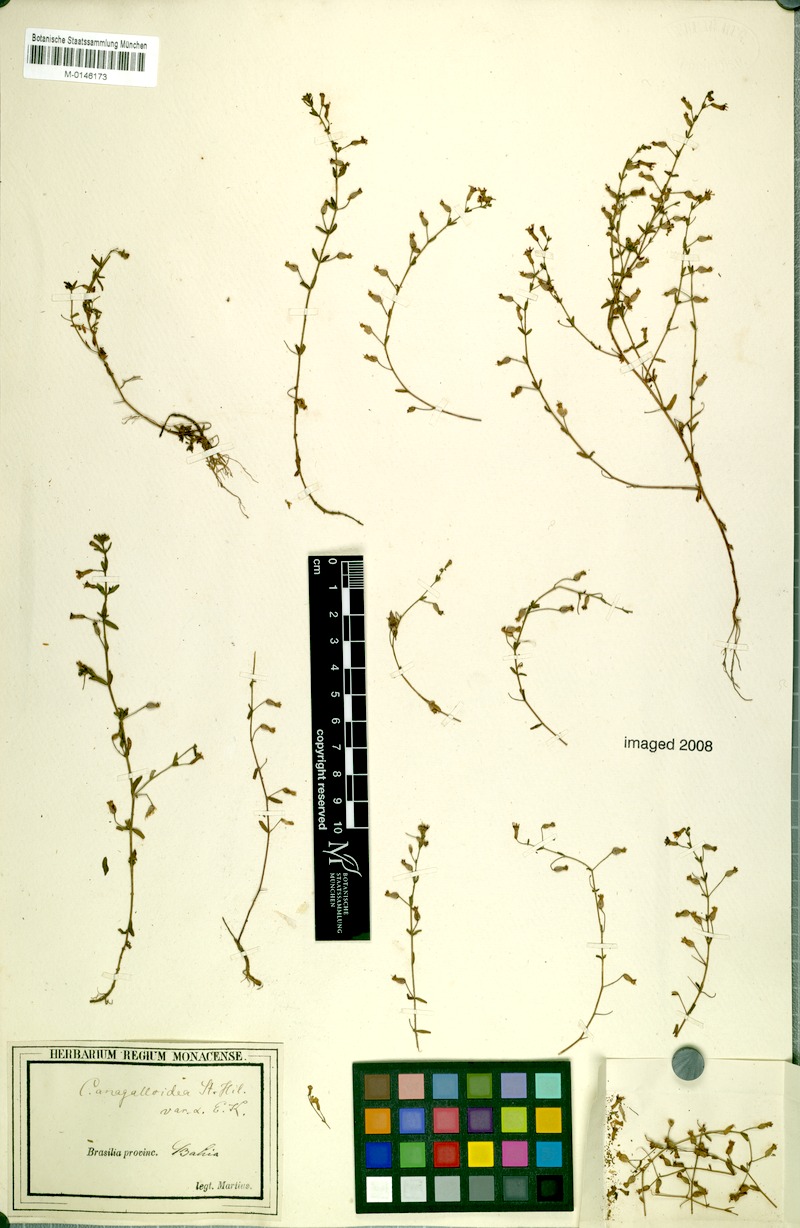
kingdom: Plantae
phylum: Tracheophyta
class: Magnoliopsida
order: Myrtales
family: Lythraceae
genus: Cuphea
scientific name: Cuphea anagalloidea
